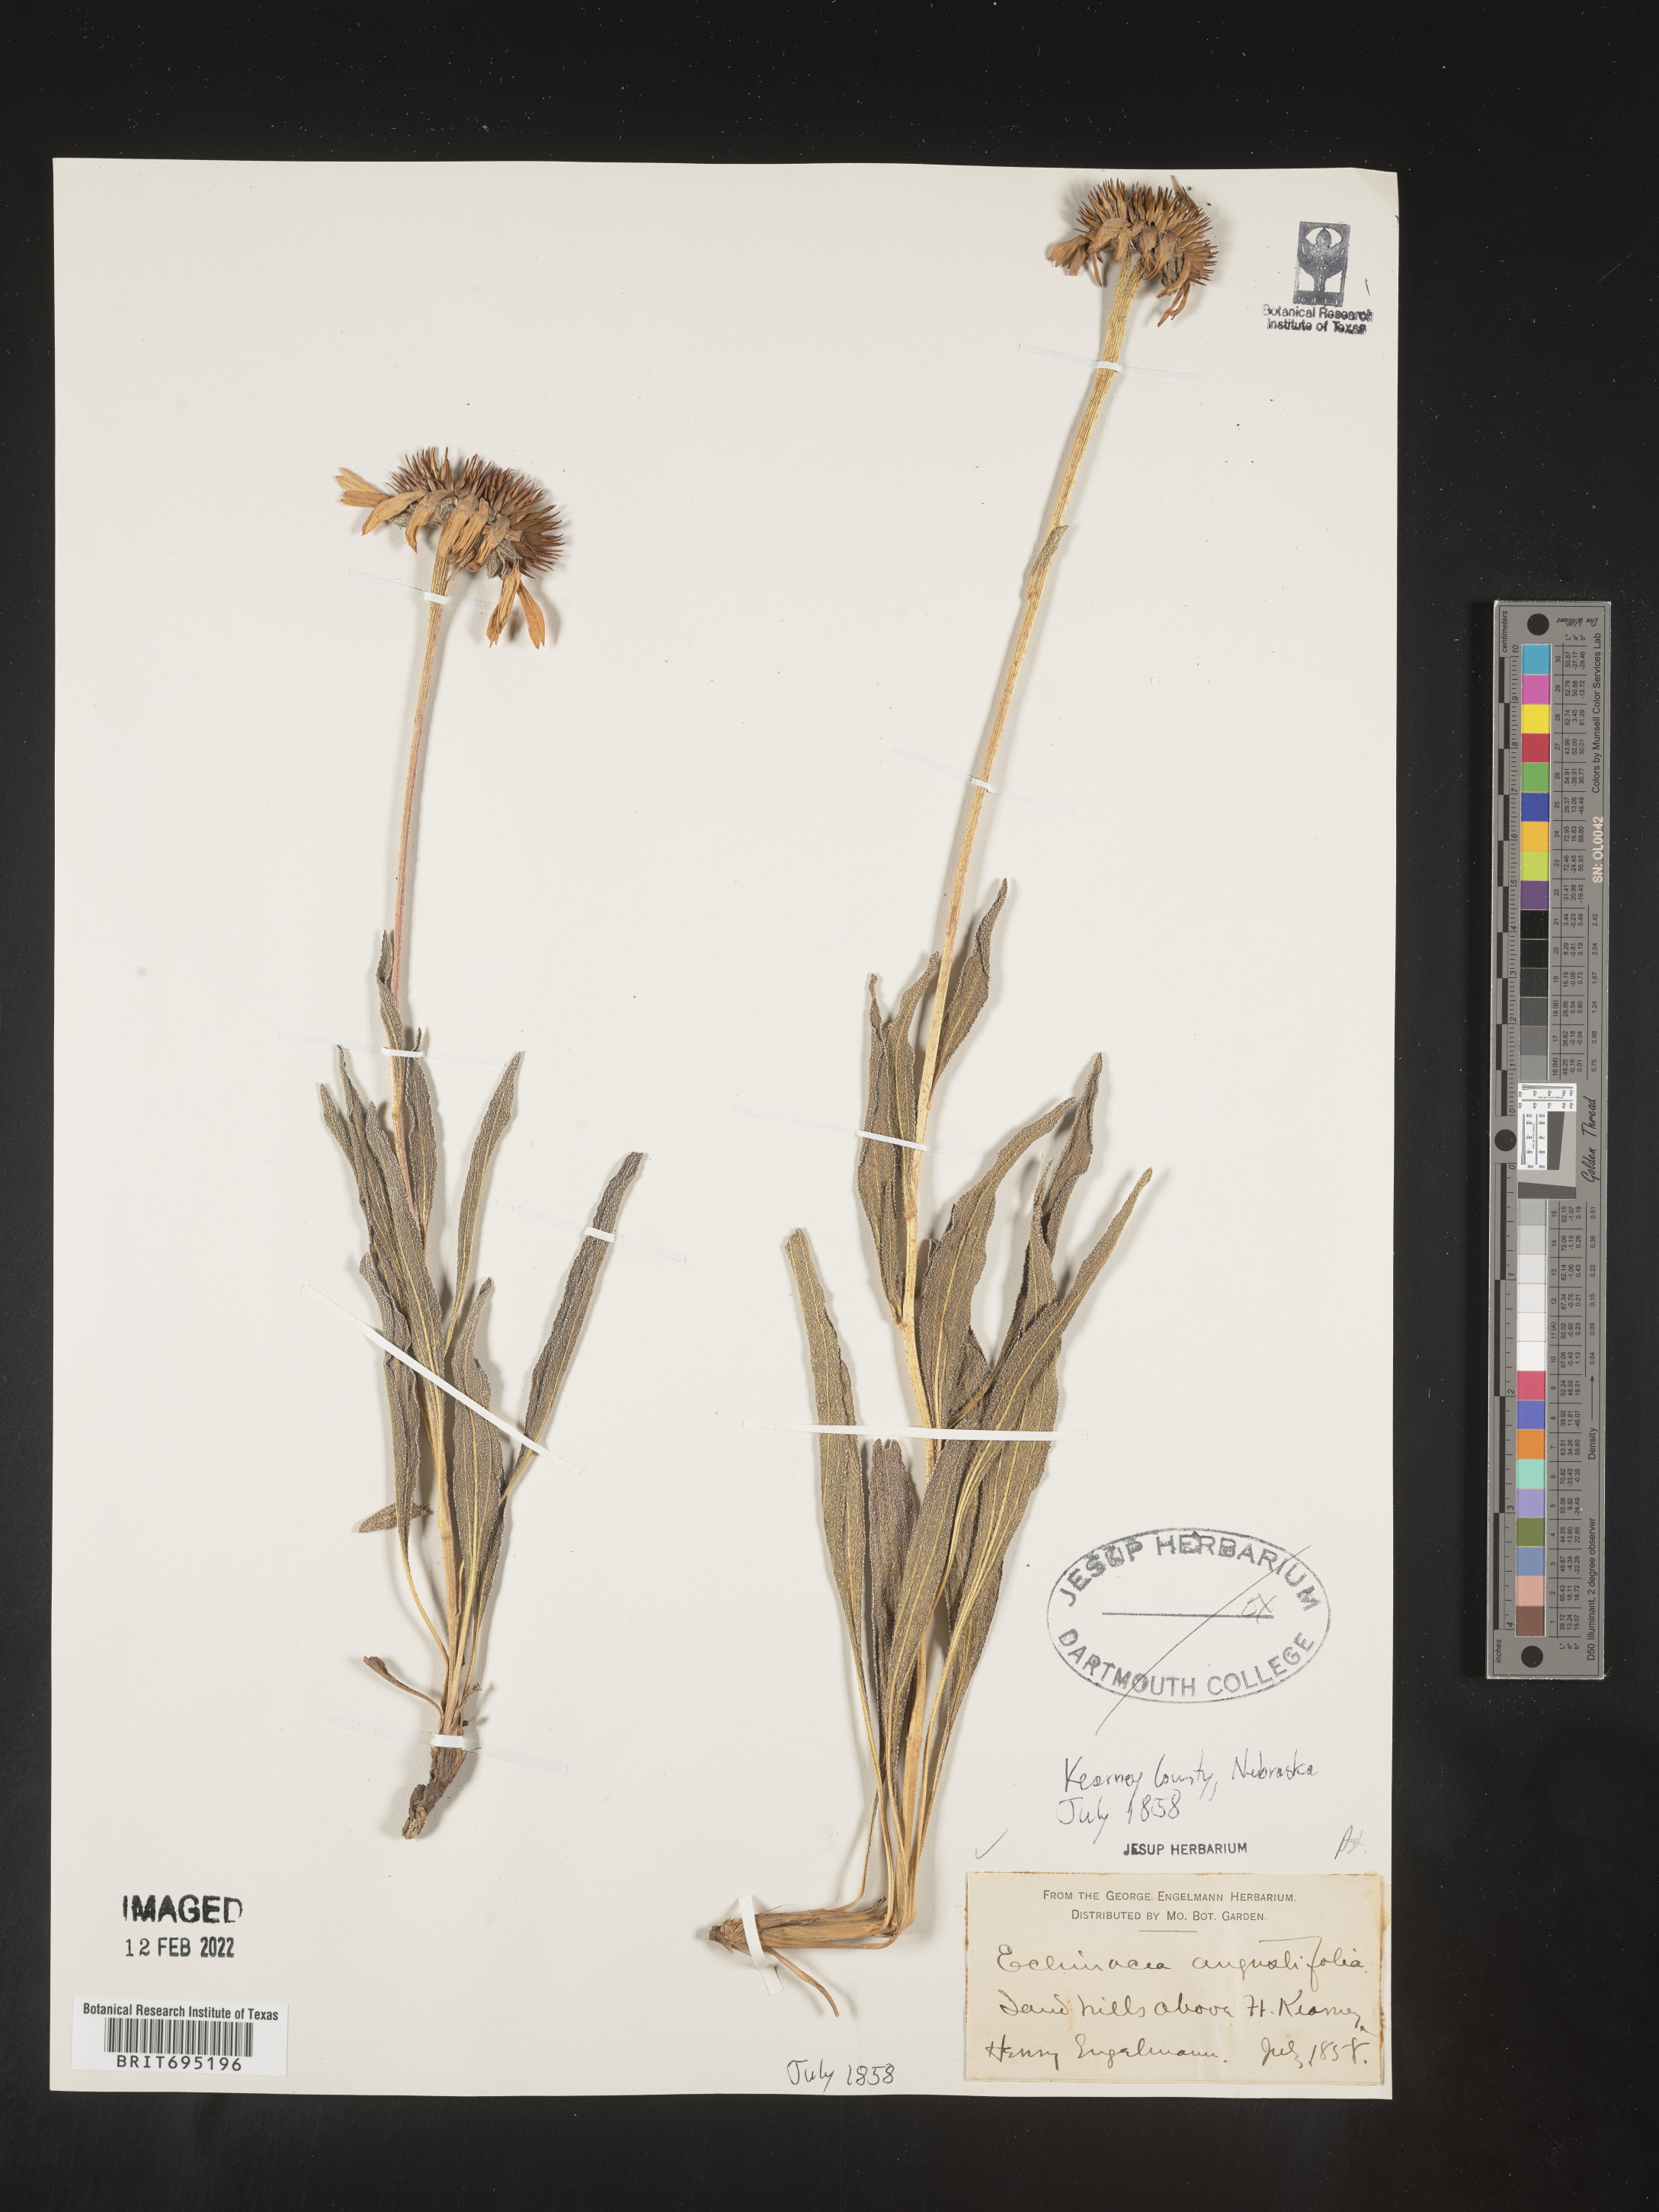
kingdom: Plantae
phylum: Tracheophyta
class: Magnoliopsida
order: Asterales
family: Asteraceae
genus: Echinacea
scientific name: Echinacea angustifolia
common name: Black-sampson echinacea
